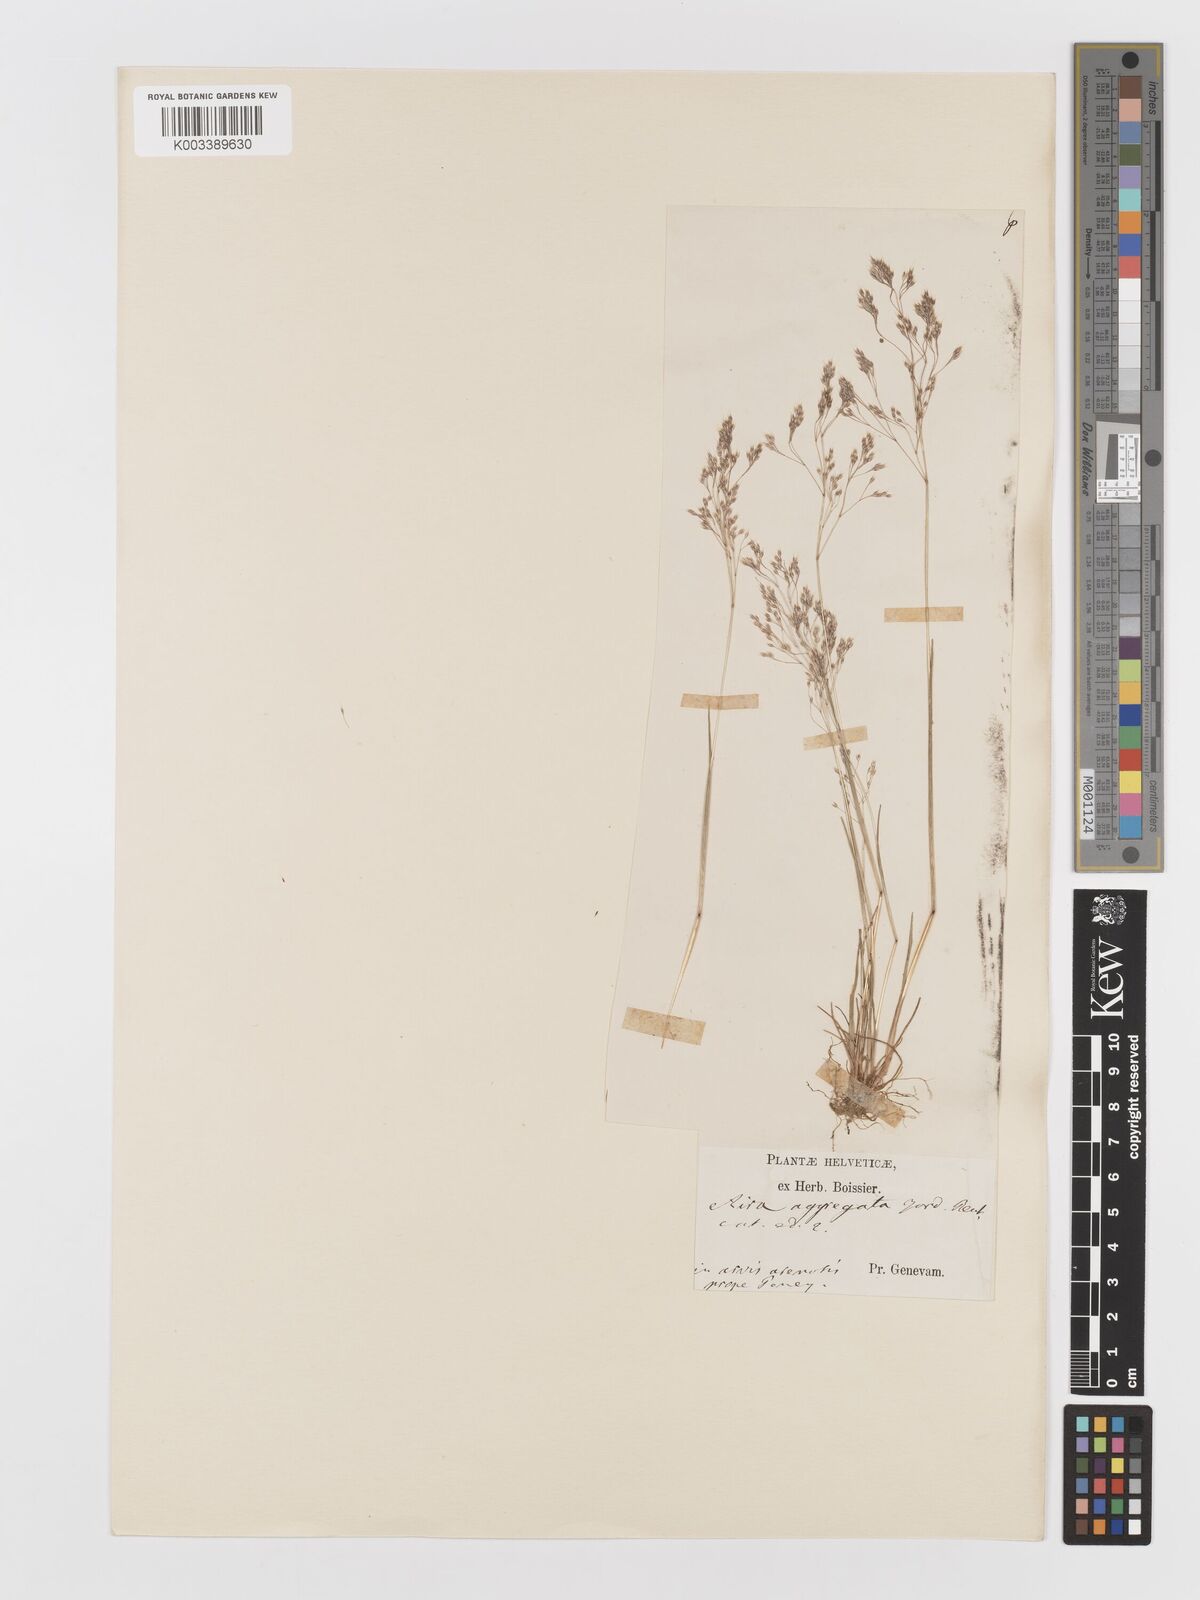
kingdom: Plantae
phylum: Tracheophyta
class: Liliopsida
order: Poales
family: Poaceae
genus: Aira
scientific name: Aira caryophyllea
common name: Silver hairgrass
